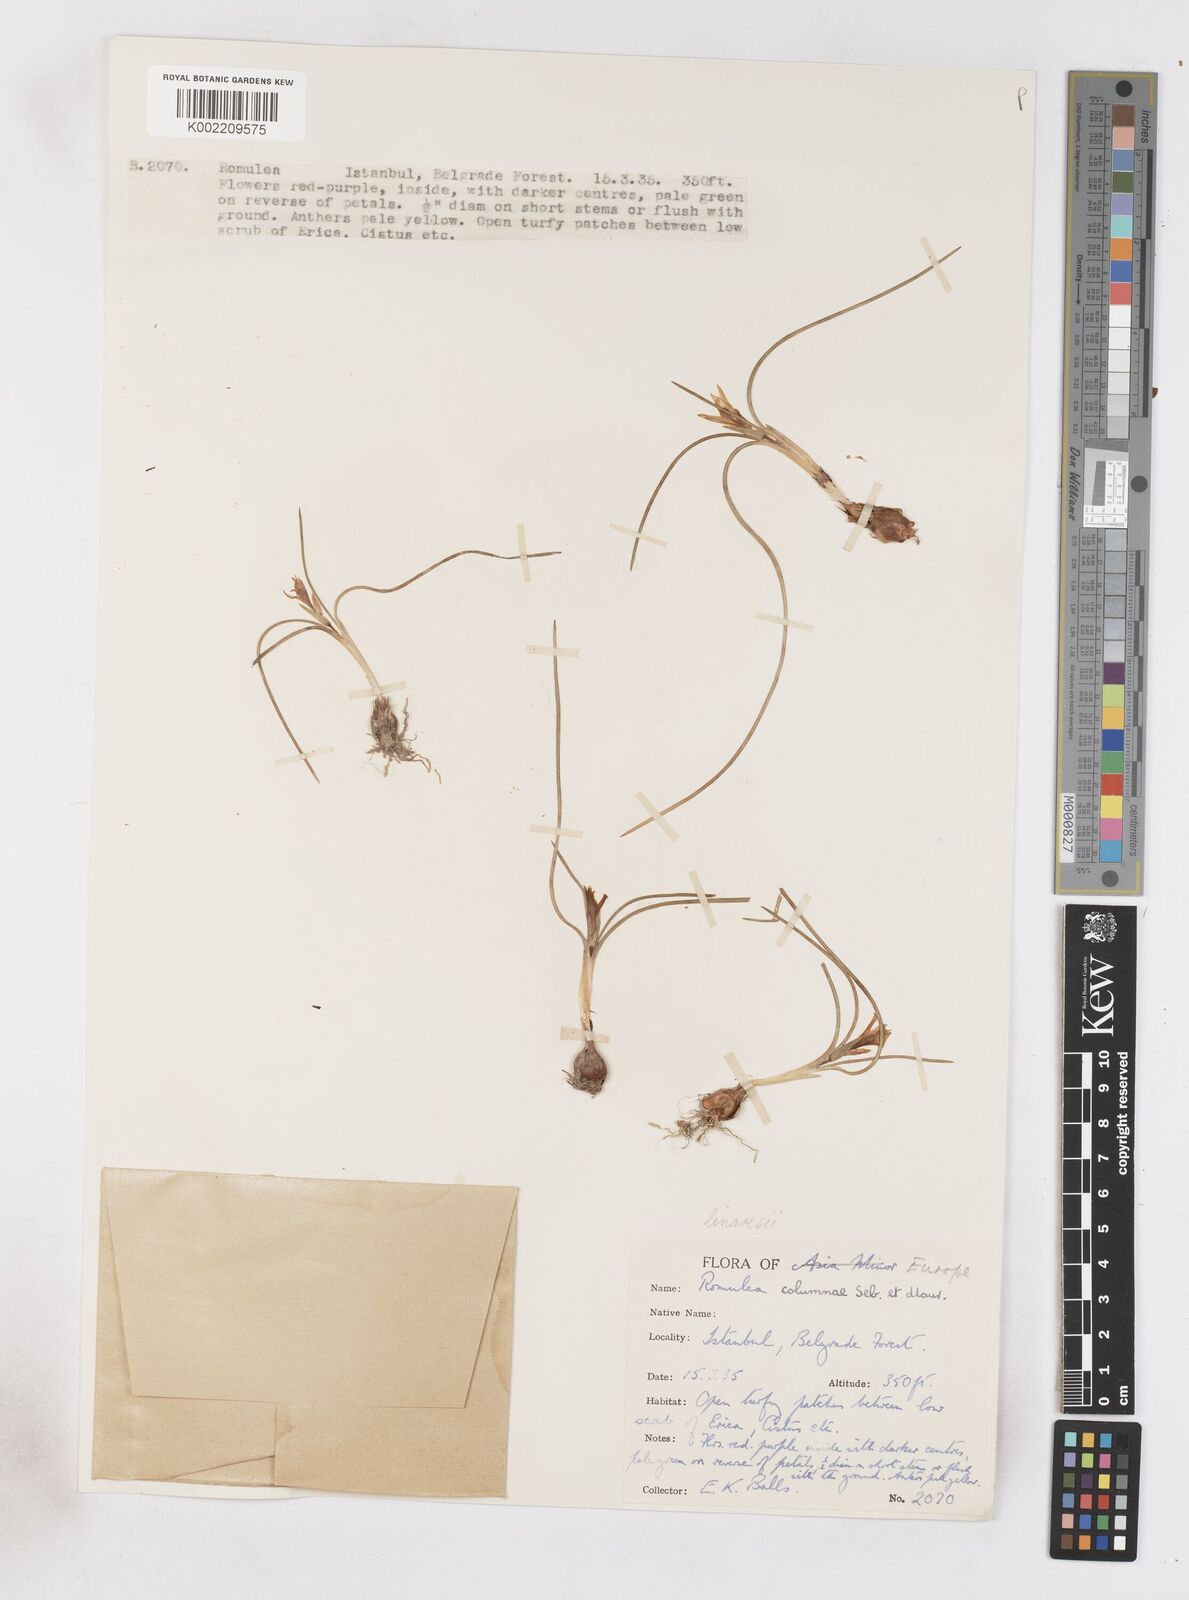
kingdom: Plantae
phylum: Tracheophyta
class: Liliopsida
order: Asparagales
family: Iridaceae
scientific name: Iridaceae
